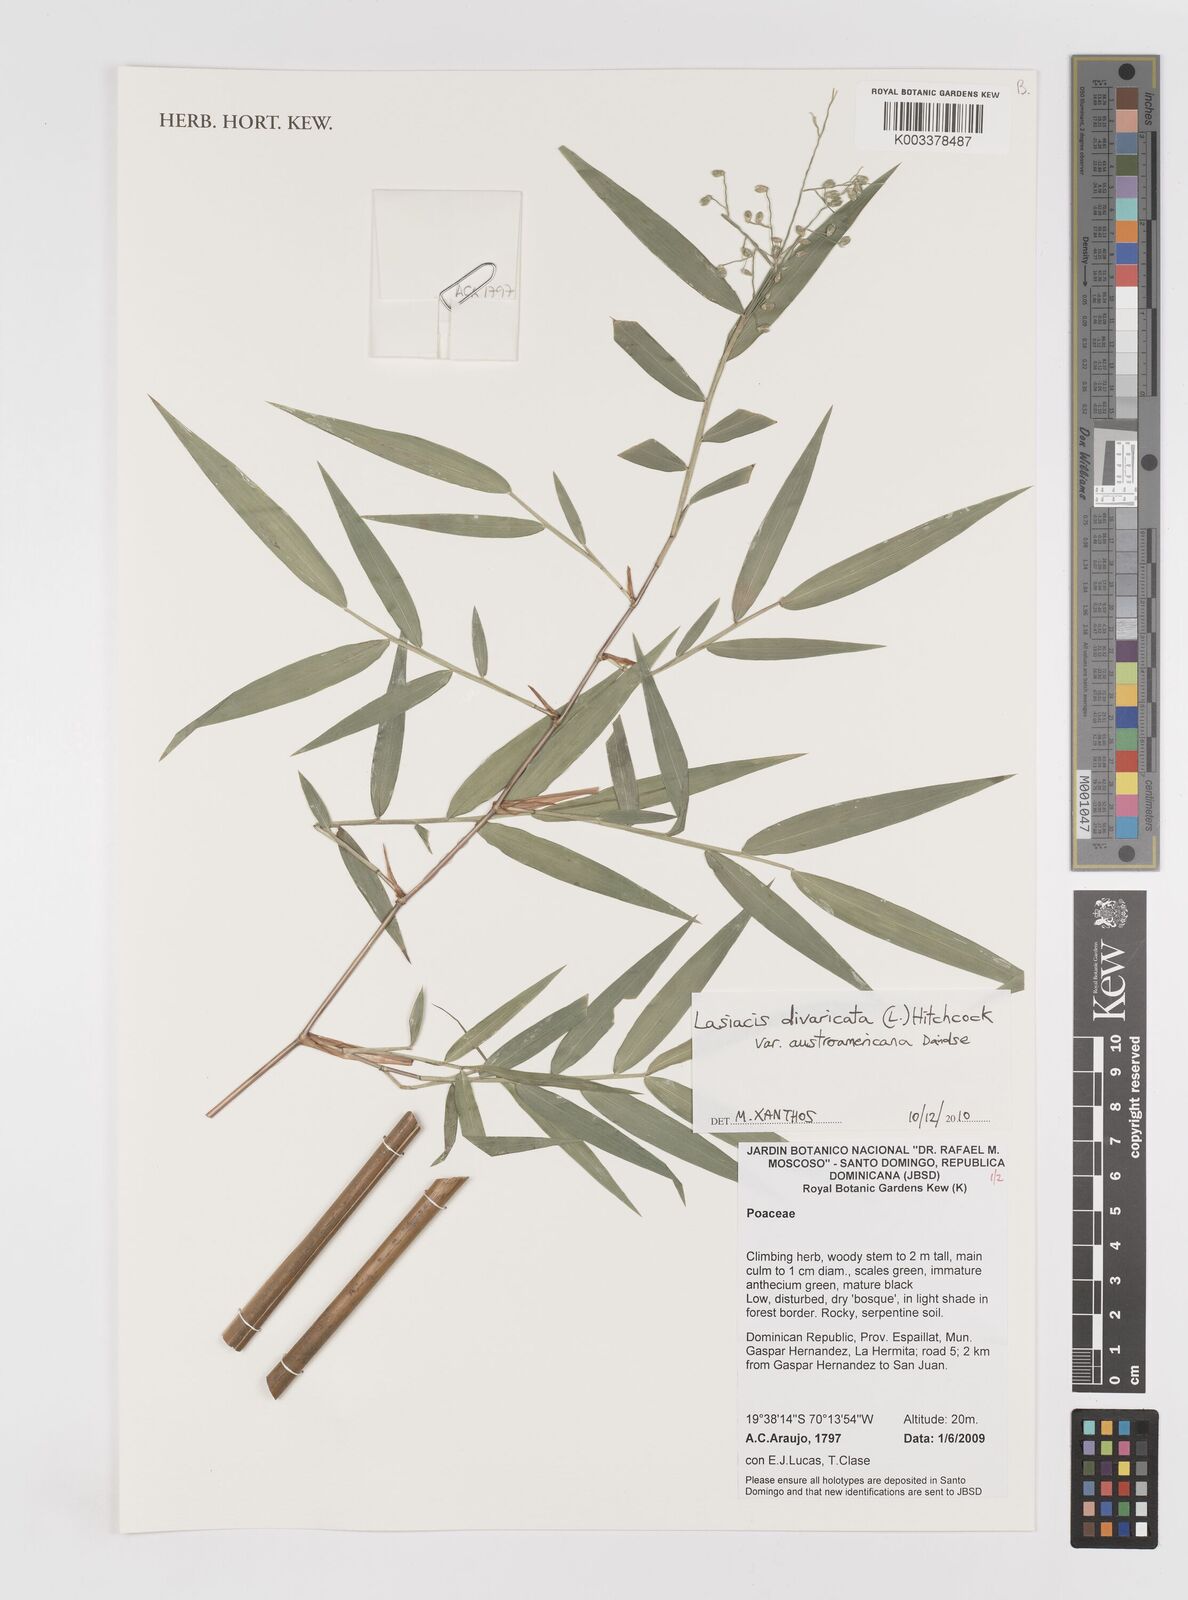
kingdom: Plantae
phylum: Tracheophyta
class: Liliopsida
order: Poales
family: Poaceae
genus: Lasiacis
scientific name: Lasiacis divaricata
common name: Smallcane
